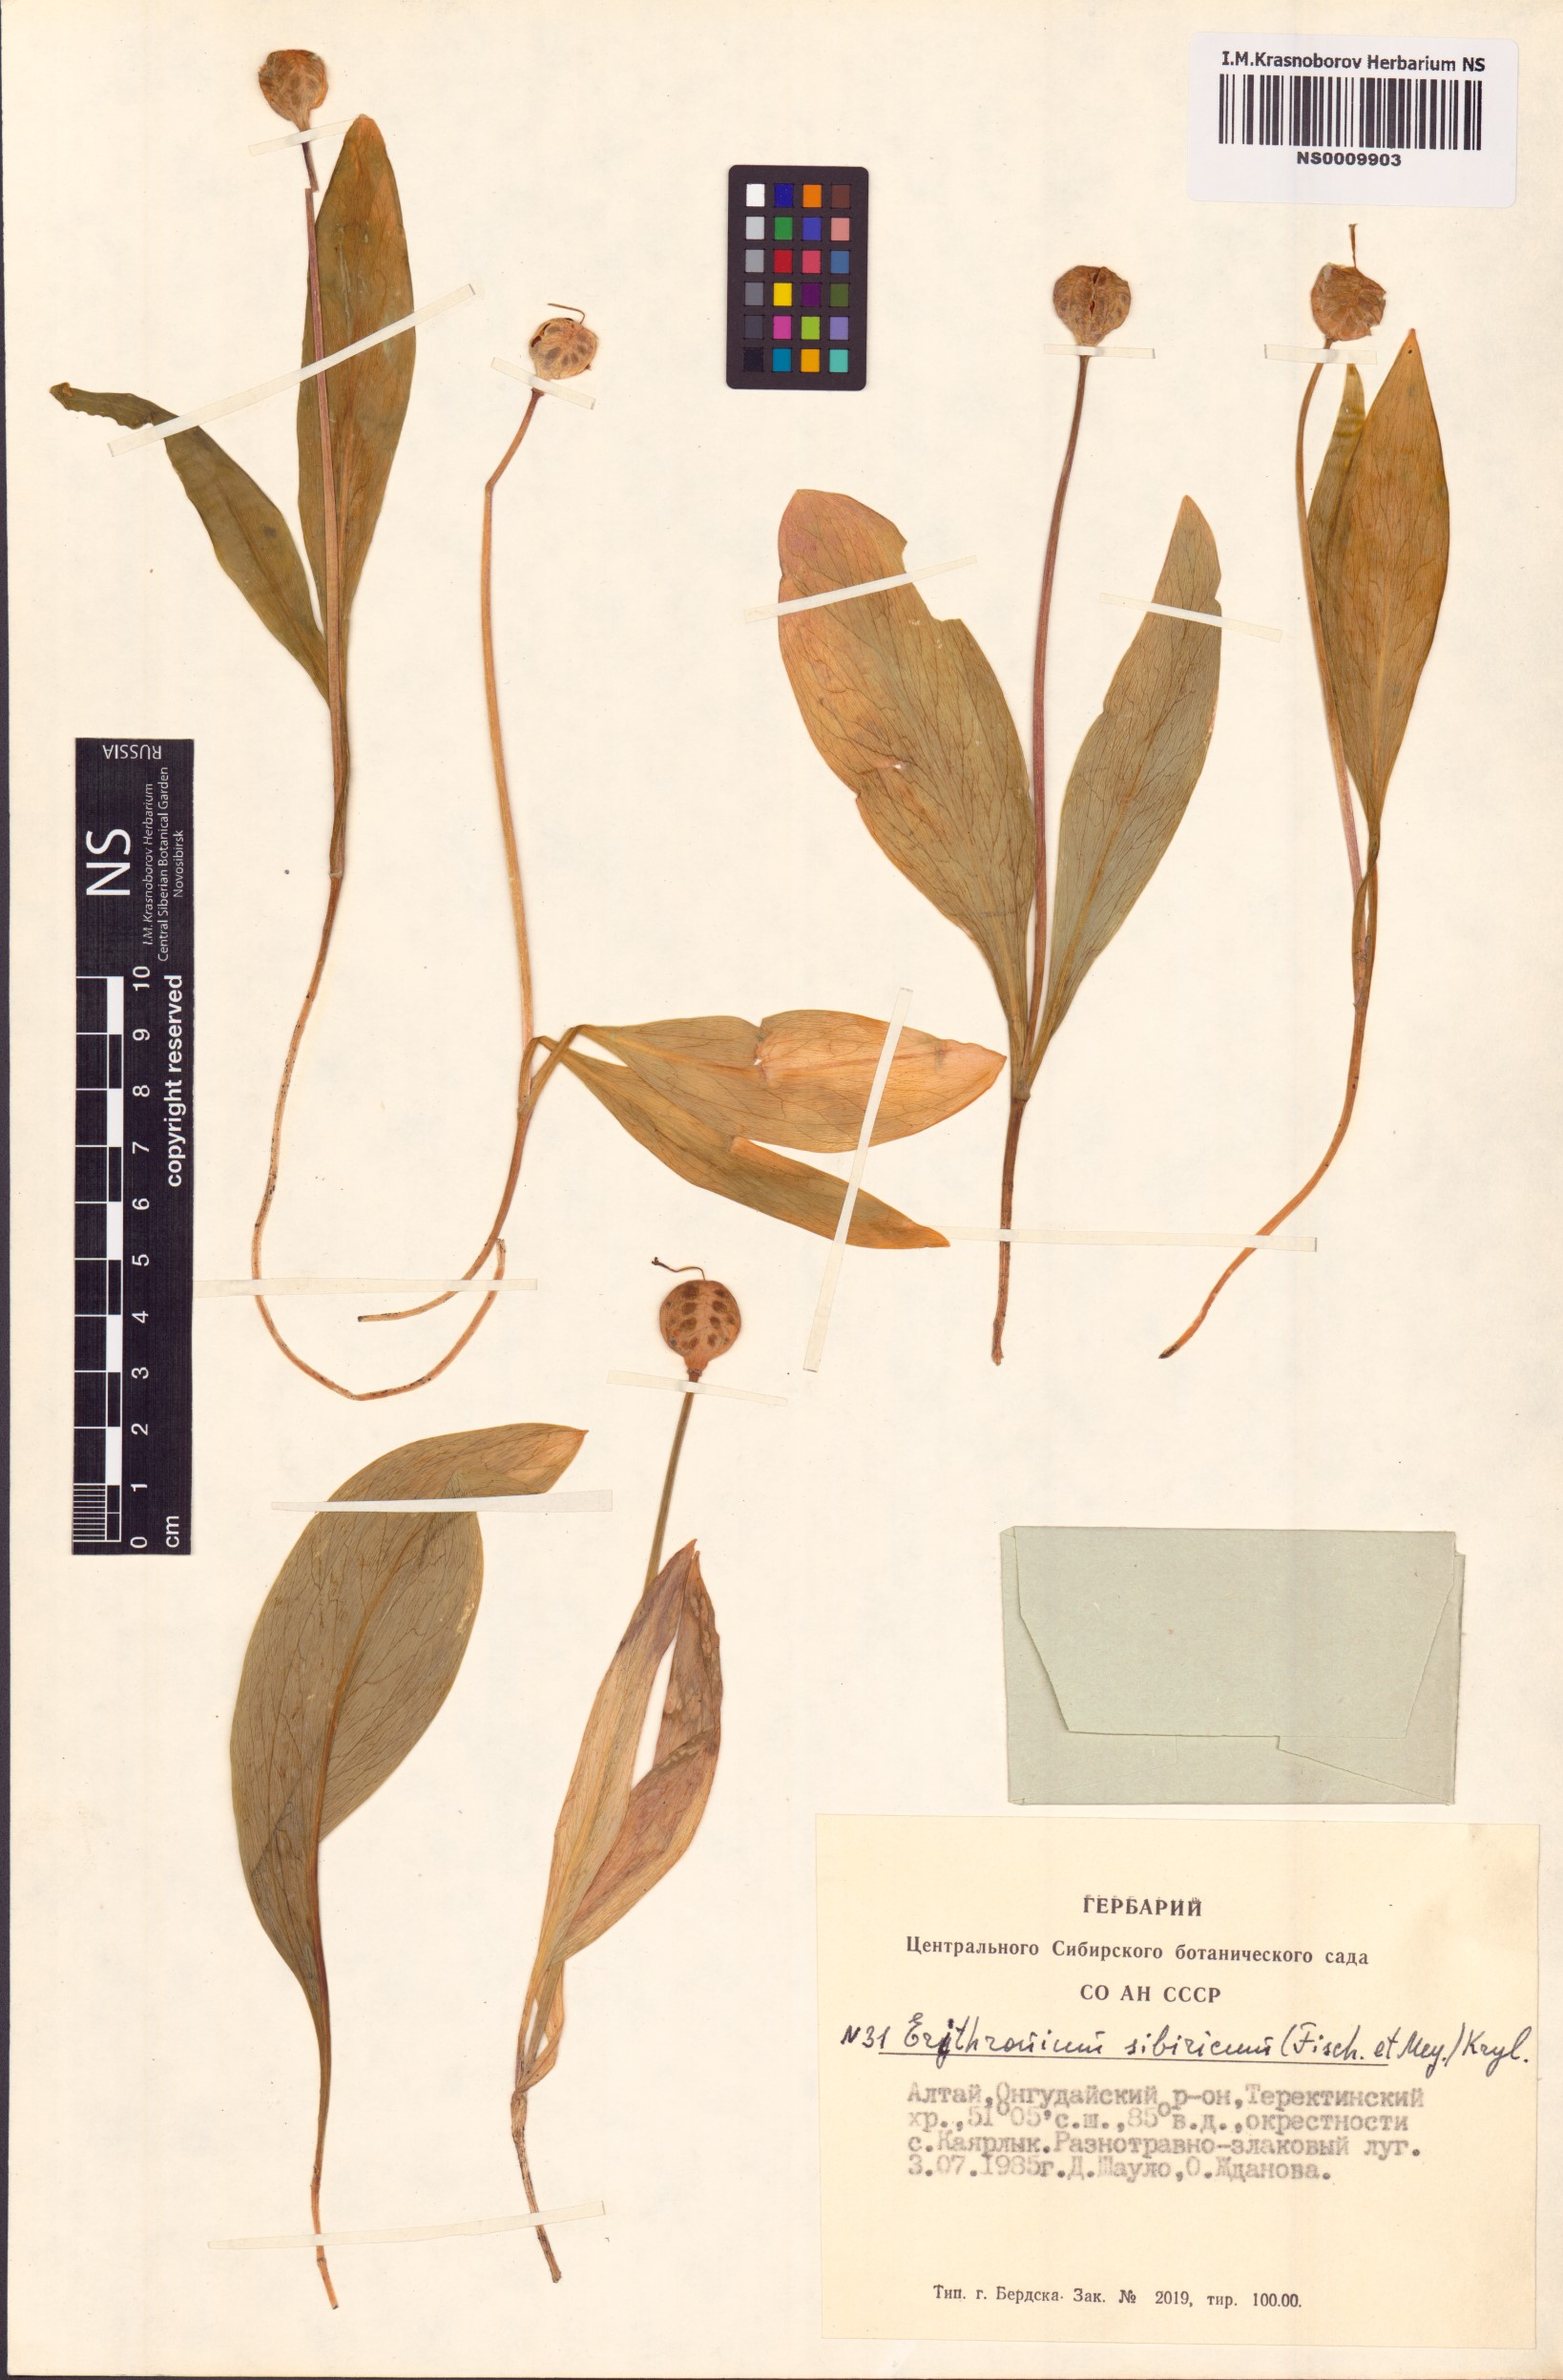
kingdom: Plantae
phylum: Tracheophyta
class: Liliopsida
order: Liliales
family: Liliaceae
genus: Erythronium
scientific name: Erythronium sibiricum
